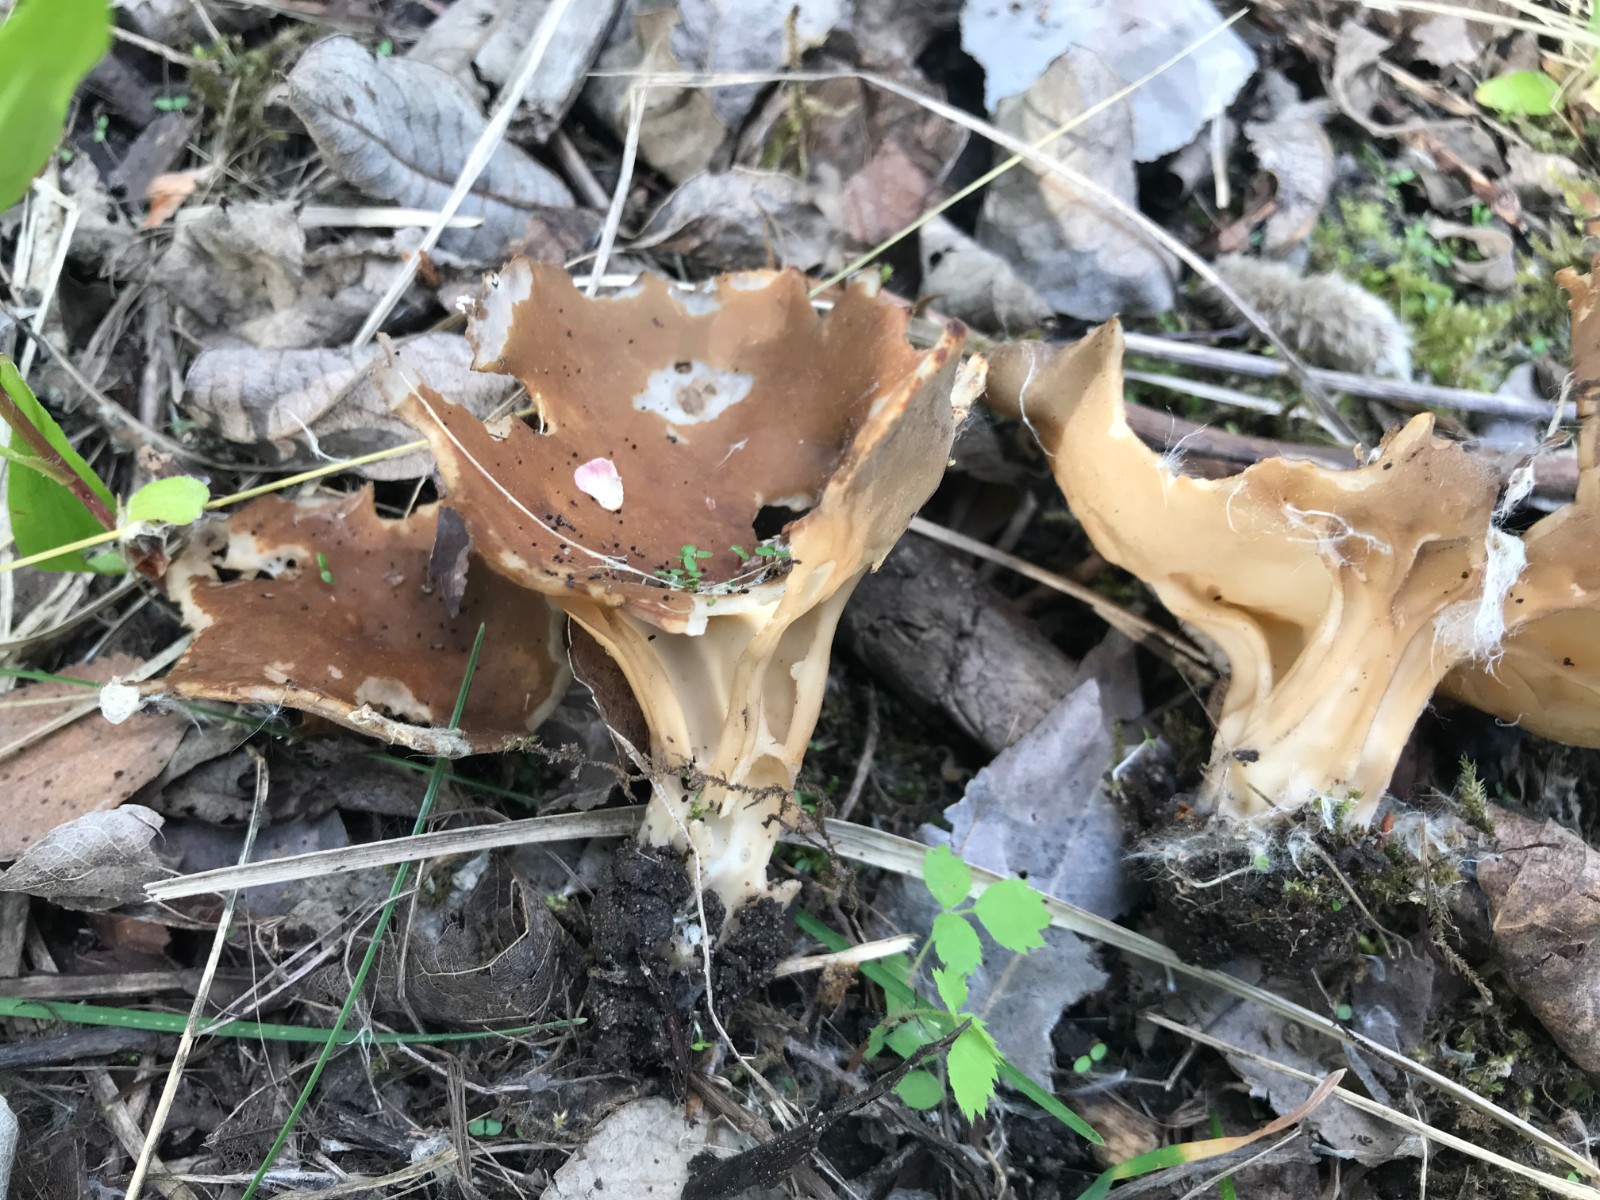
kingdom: Fungi
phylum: Ascomycota
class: Pezizomycetes
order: Pezizales
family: Helvellaceae
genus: Helvella
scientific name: Helvella acetabulum
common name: pokal-foldhat
